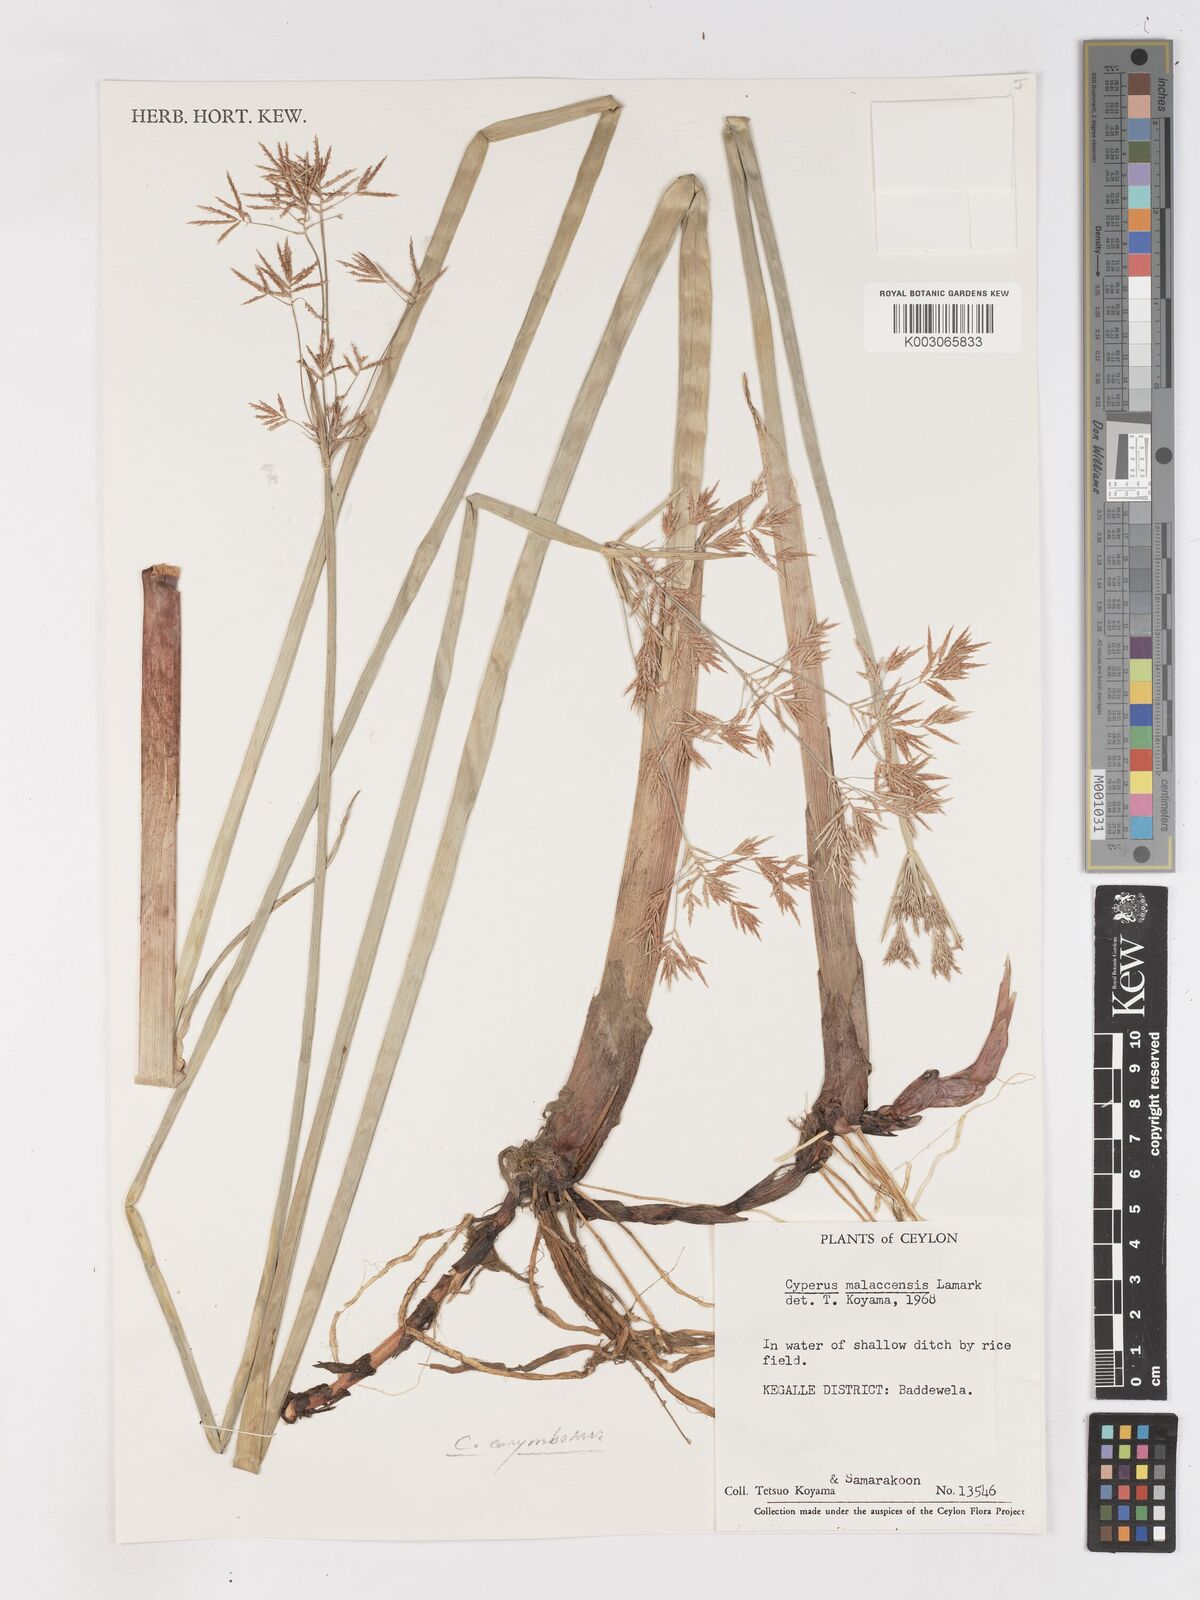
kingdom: Plantae
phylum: Tracheophyta
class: Liliopsida
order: Poales
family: Cyperaceae
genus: Cyperus
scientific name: Cyperus malaccensis
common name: Shichito matgrass
